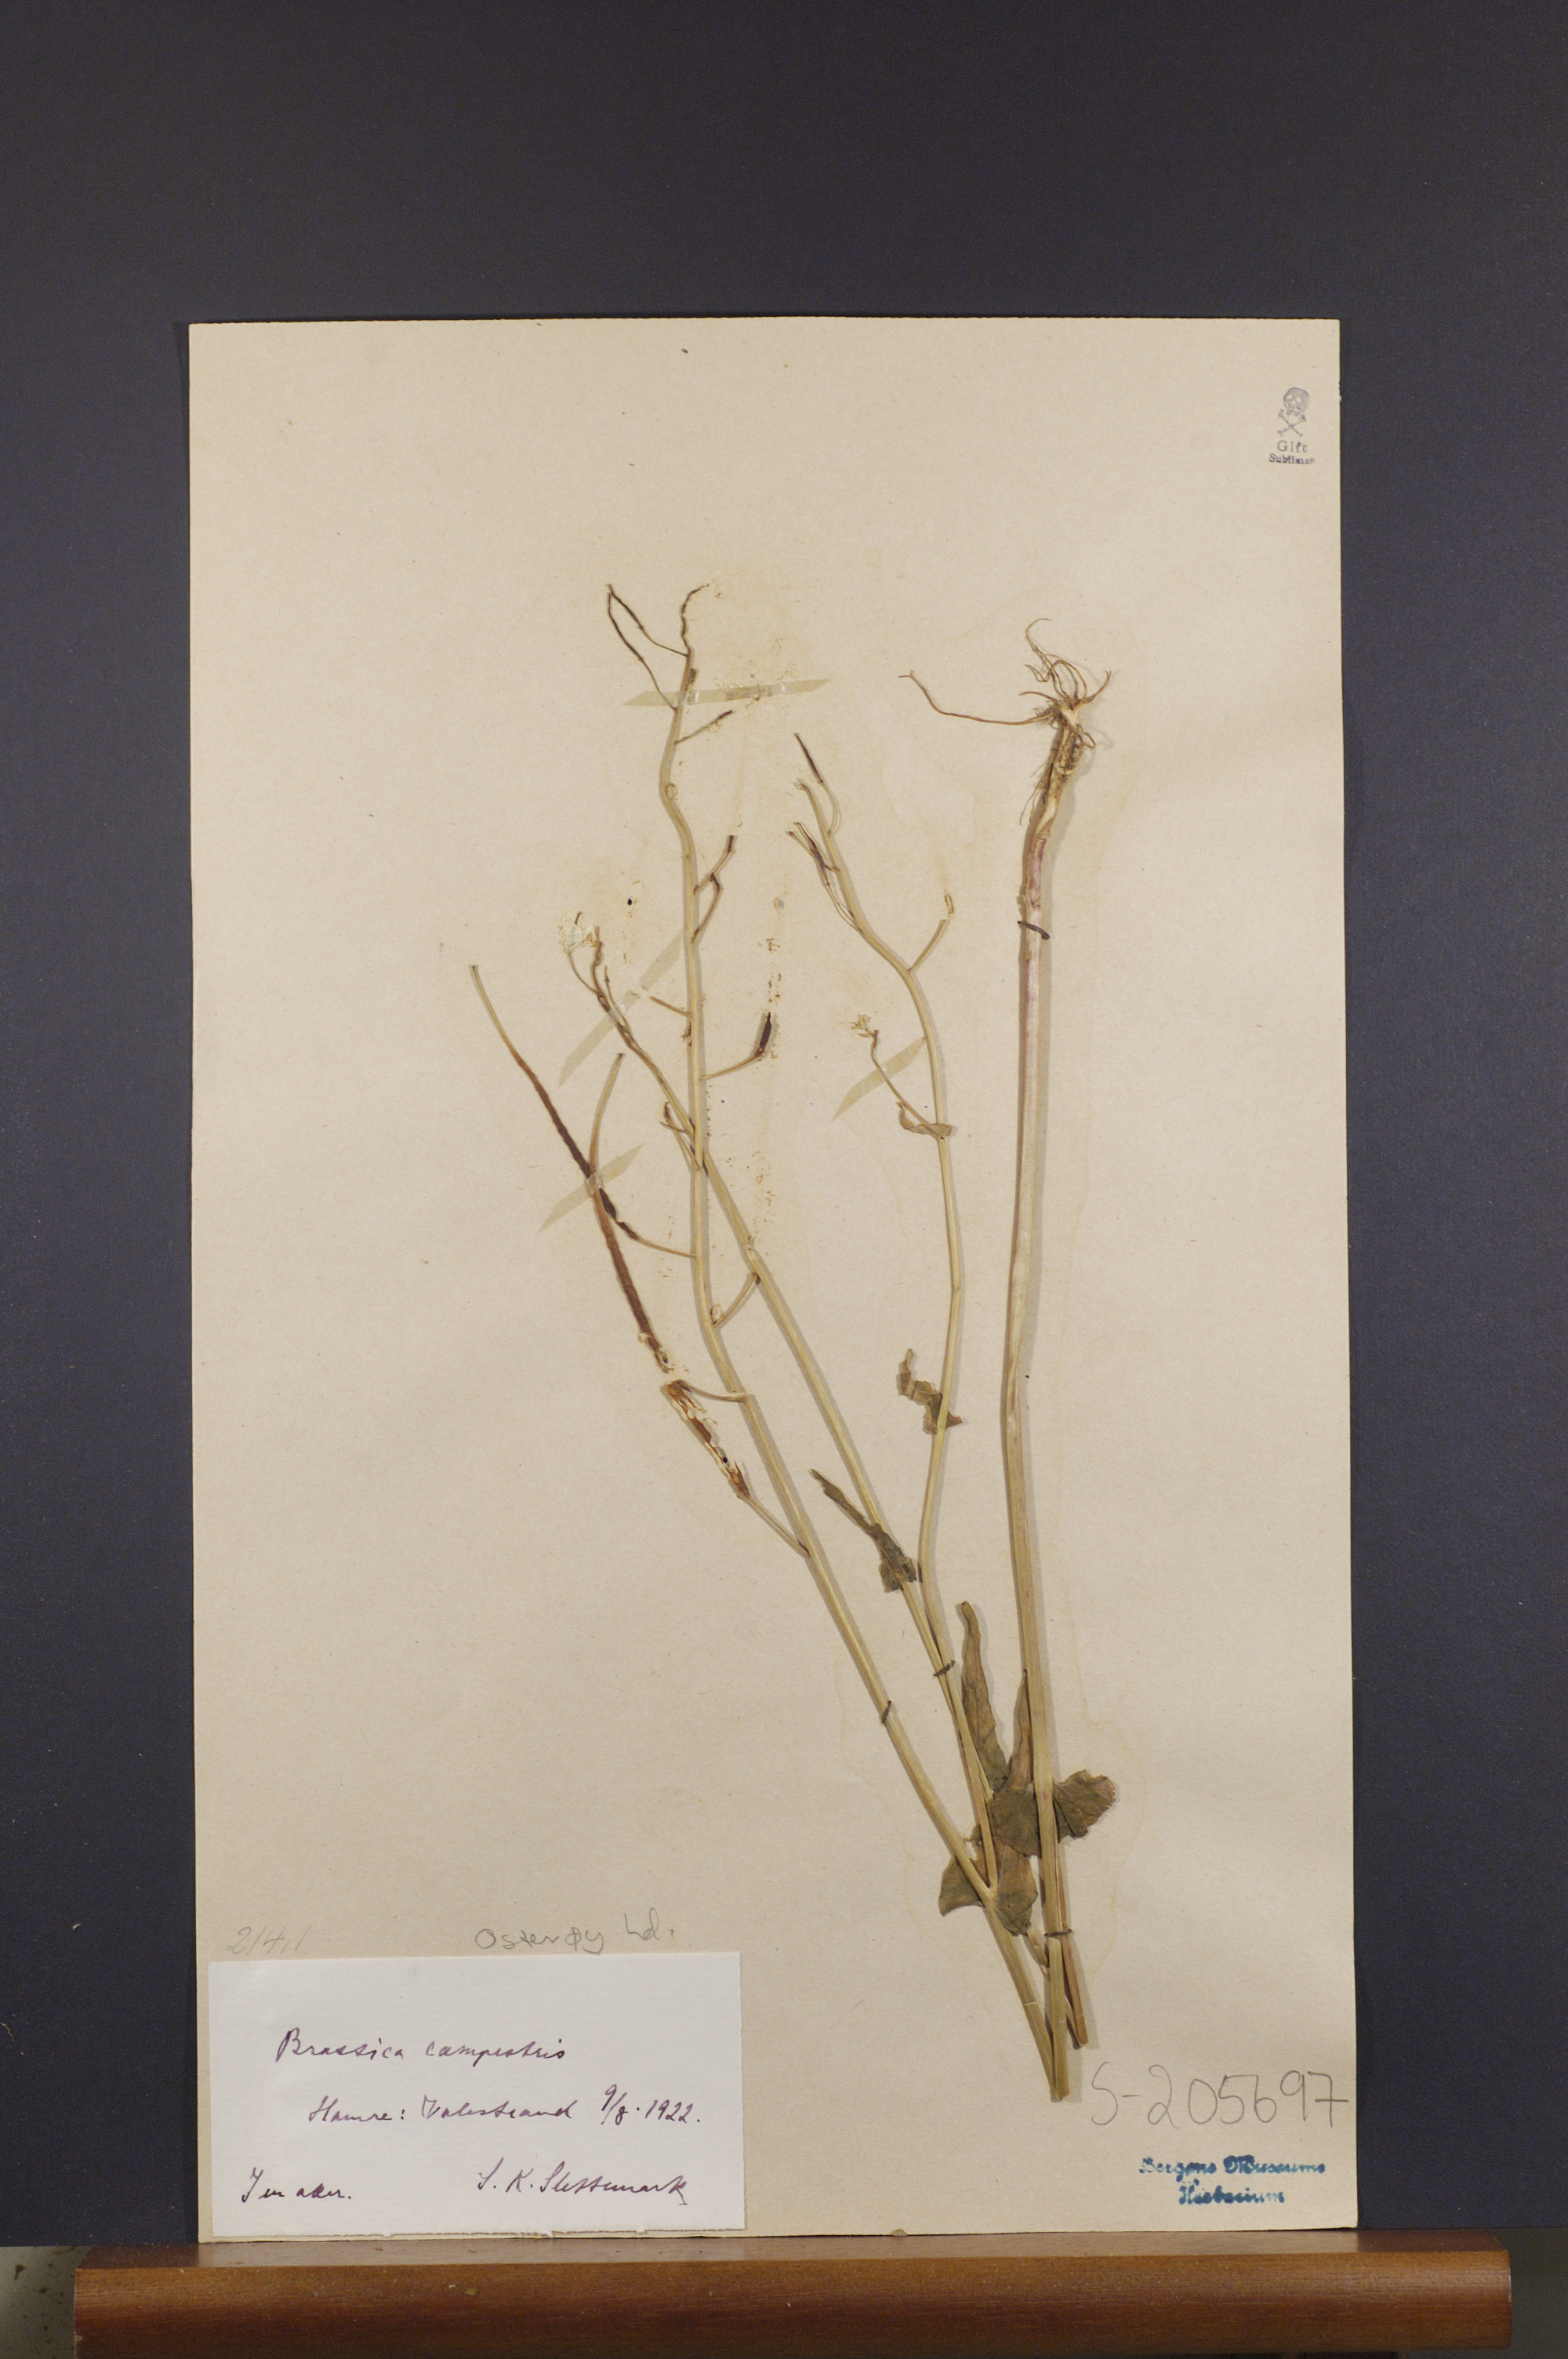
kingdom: Plantae
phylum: Tracheophyta
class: Magnoliopsida
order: Brassicales
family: Brassicaceae
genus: Brassica
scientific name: Brassica rapa
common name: Field mustard
